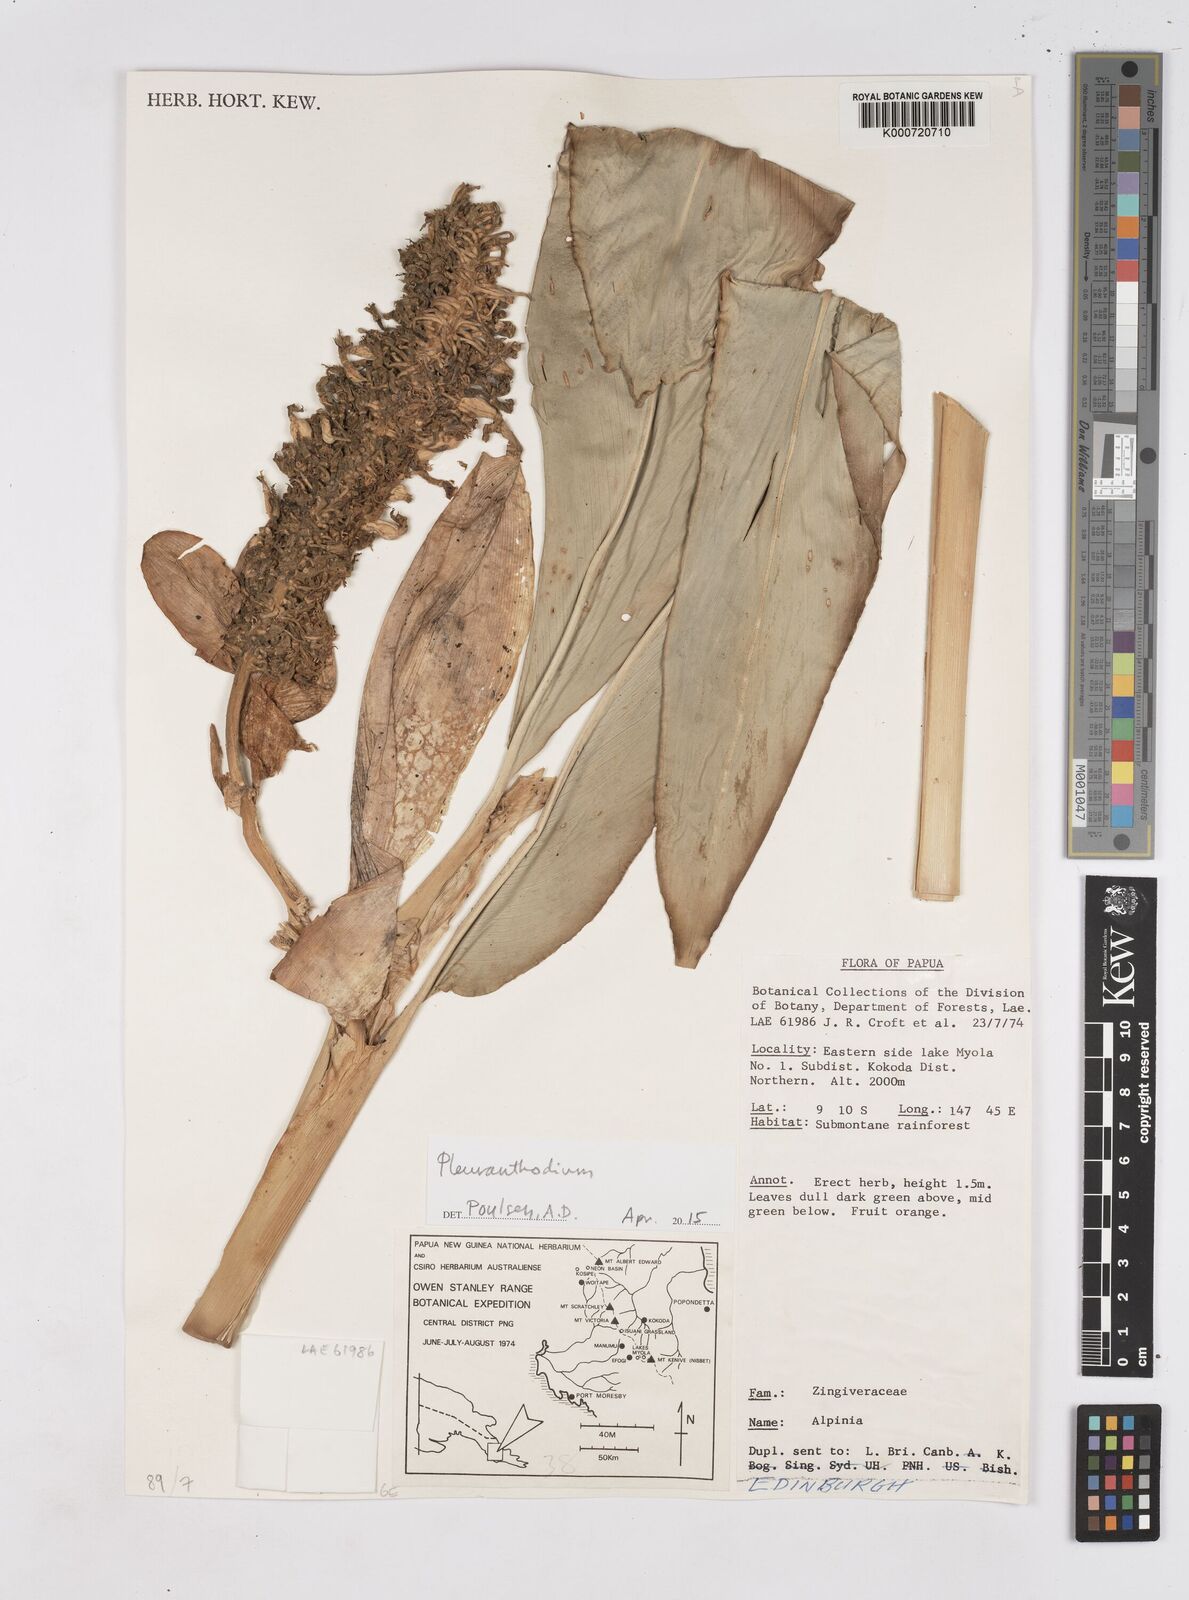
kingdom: Plantae
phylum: Tracheophyta
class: Liliopsida
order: Zingiberales
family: Zingiberaceae
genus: Pleuranthodium
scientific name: Pleuranthodium
